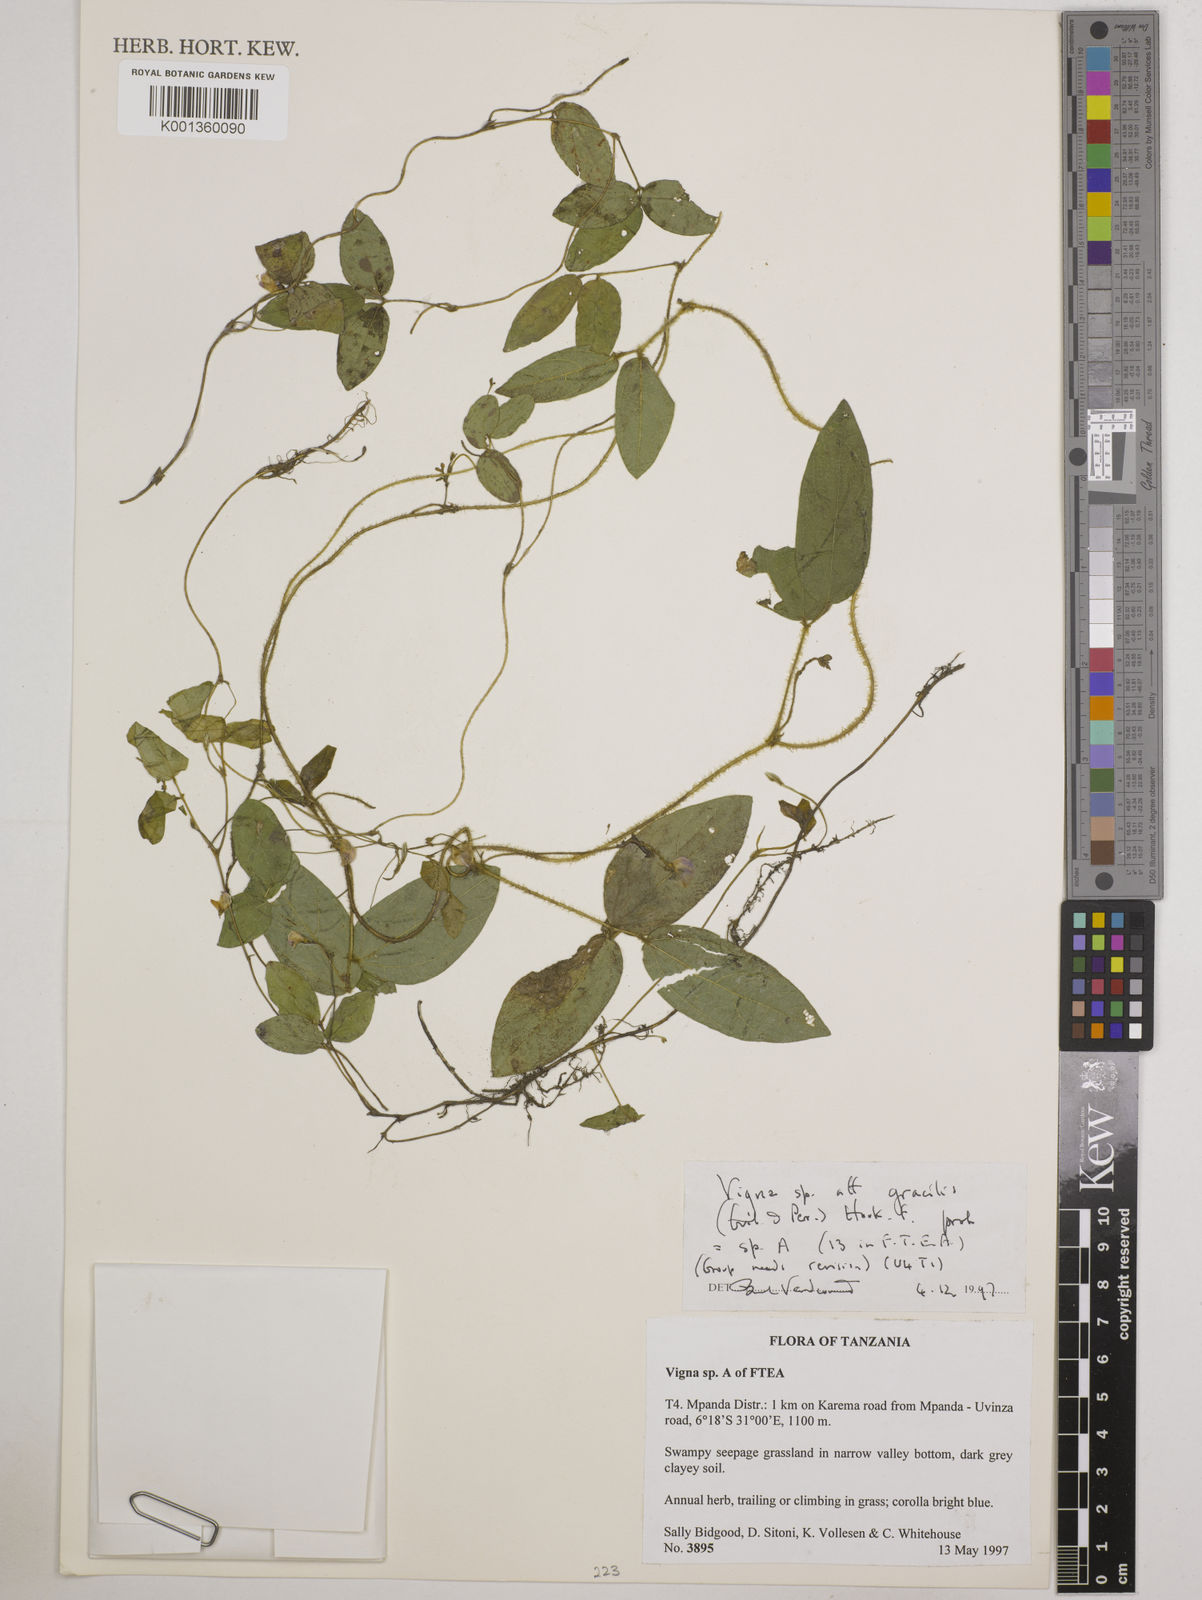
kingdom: Plantae
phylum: Tracheophyta
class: Magnoliopsida
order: Fabales
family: Fabaceae
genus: Vigna
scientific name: Vigna gracilis
